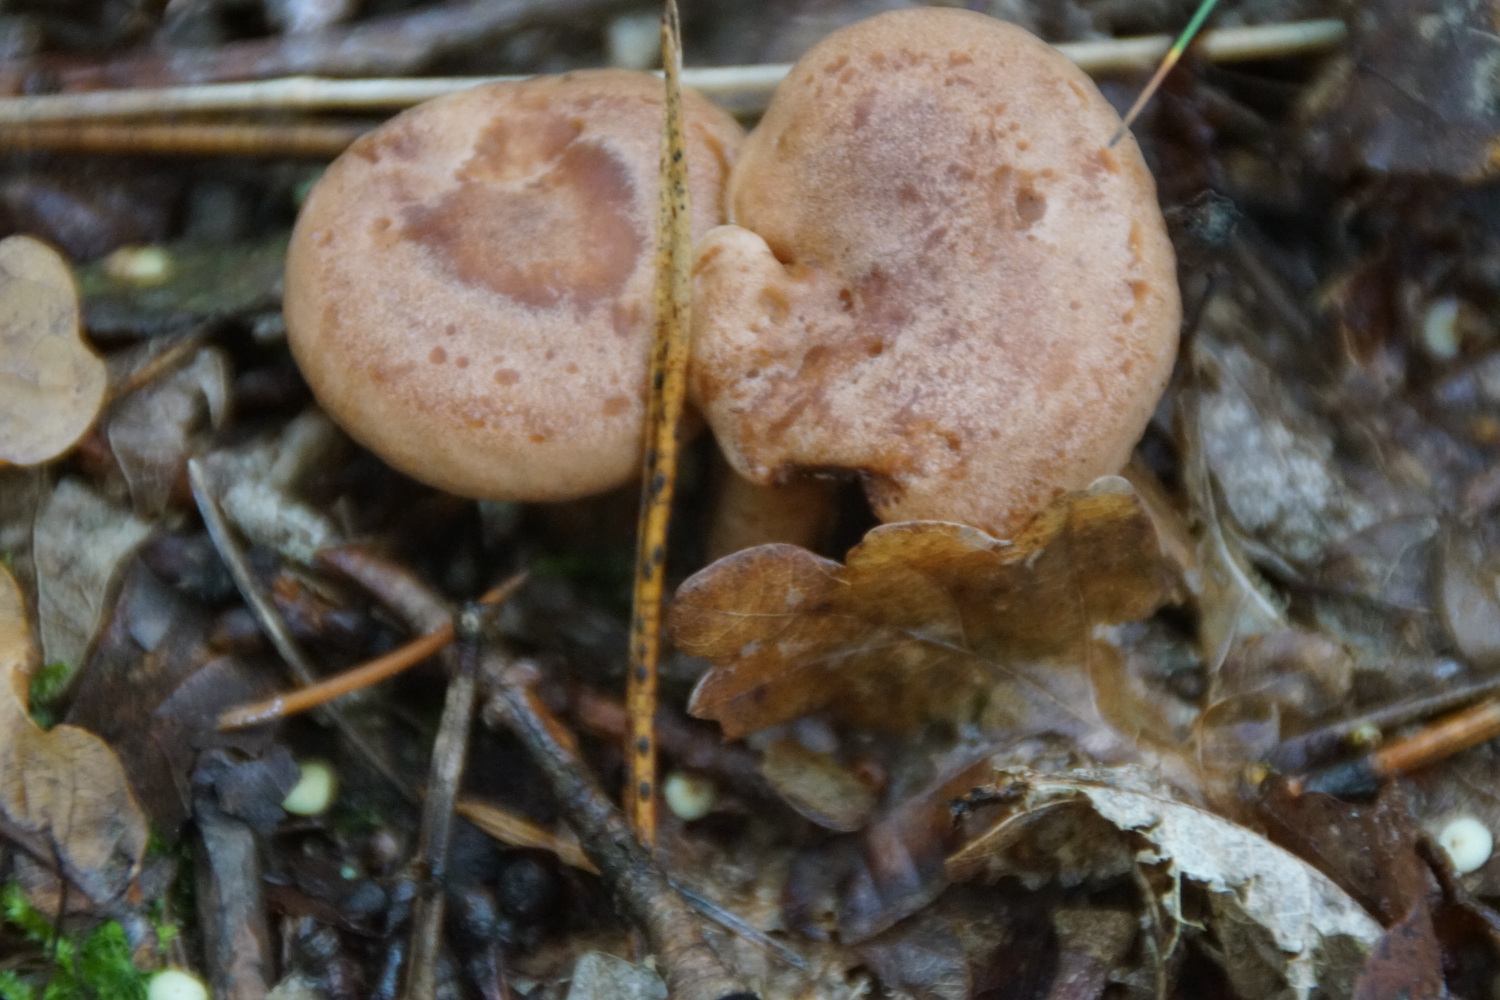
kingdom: Fungi
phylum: Basidiomycota
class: Agaricomycetes
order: Russulales
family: Russulaceae
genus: Lactarius
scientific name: Lactarius quietus
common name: ege-mælkehat
